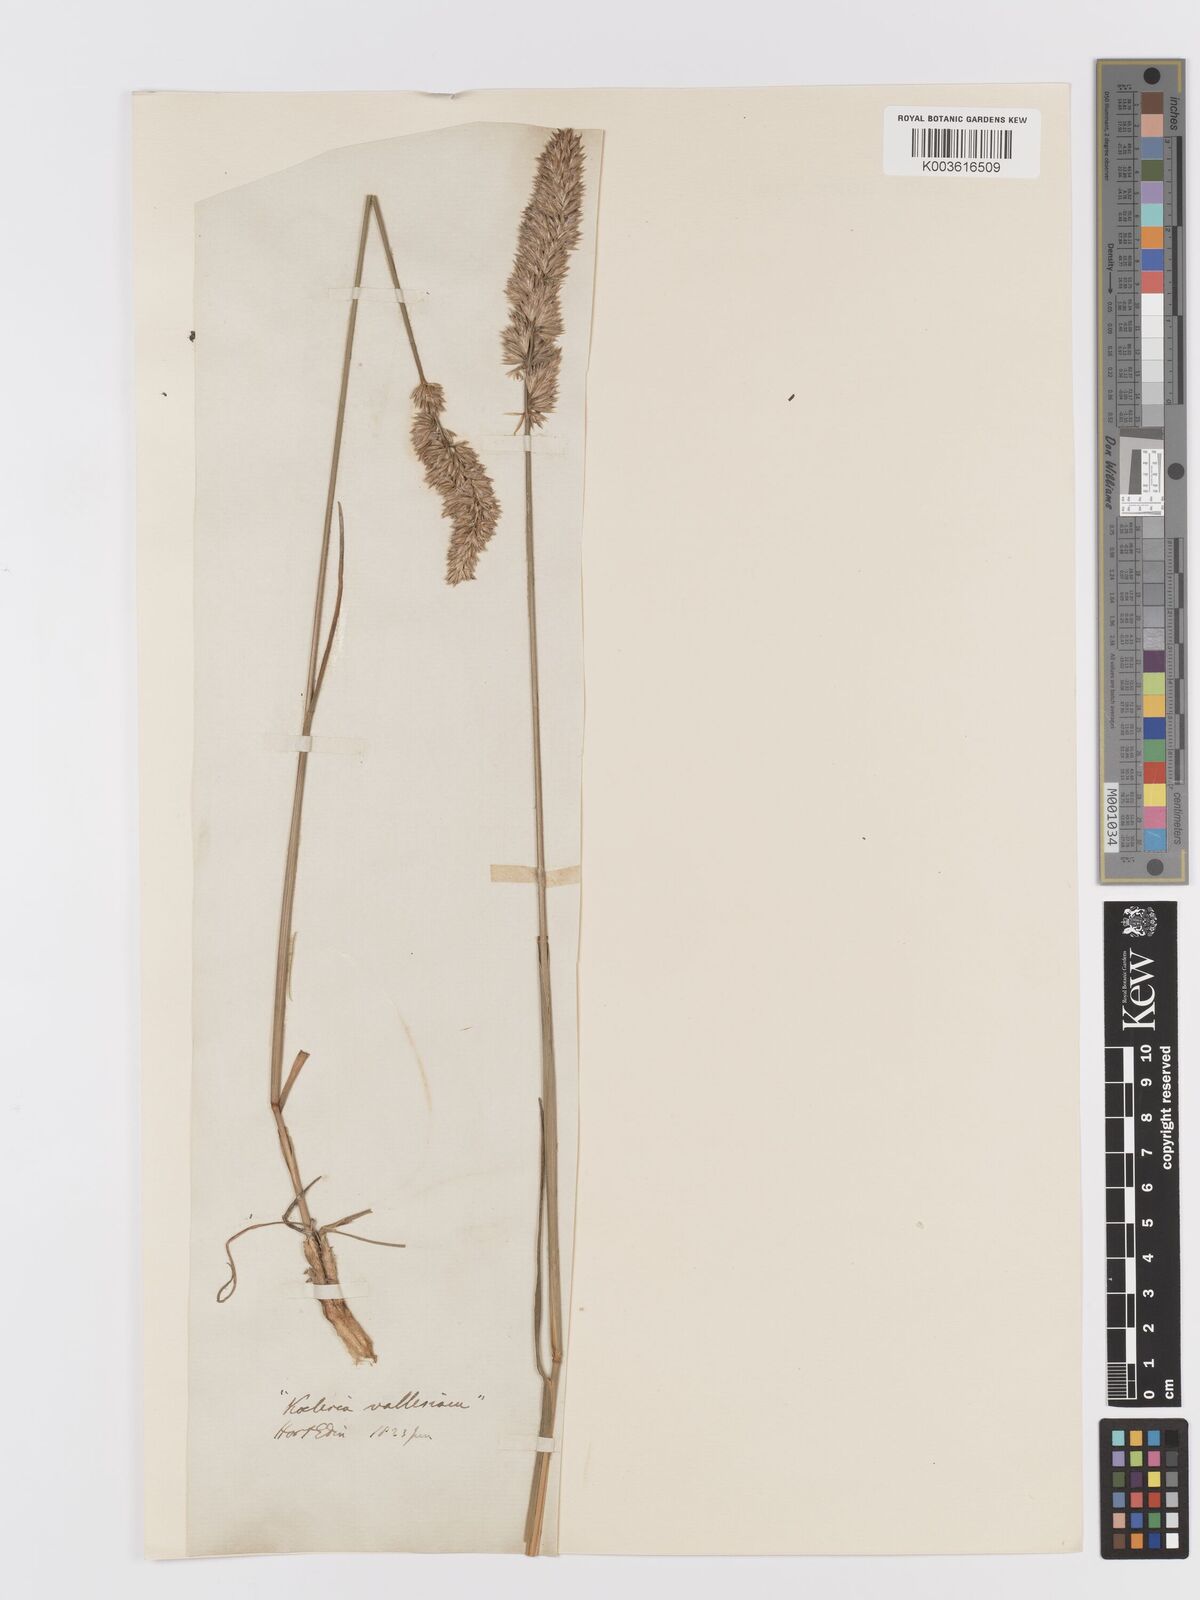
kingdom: Plantae
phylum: Tracheophyta
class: Liliopsida
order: Poales
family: Poaceae
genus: Koeleria
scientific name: Koeleria vallesiana
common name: Somerset hair-grass
